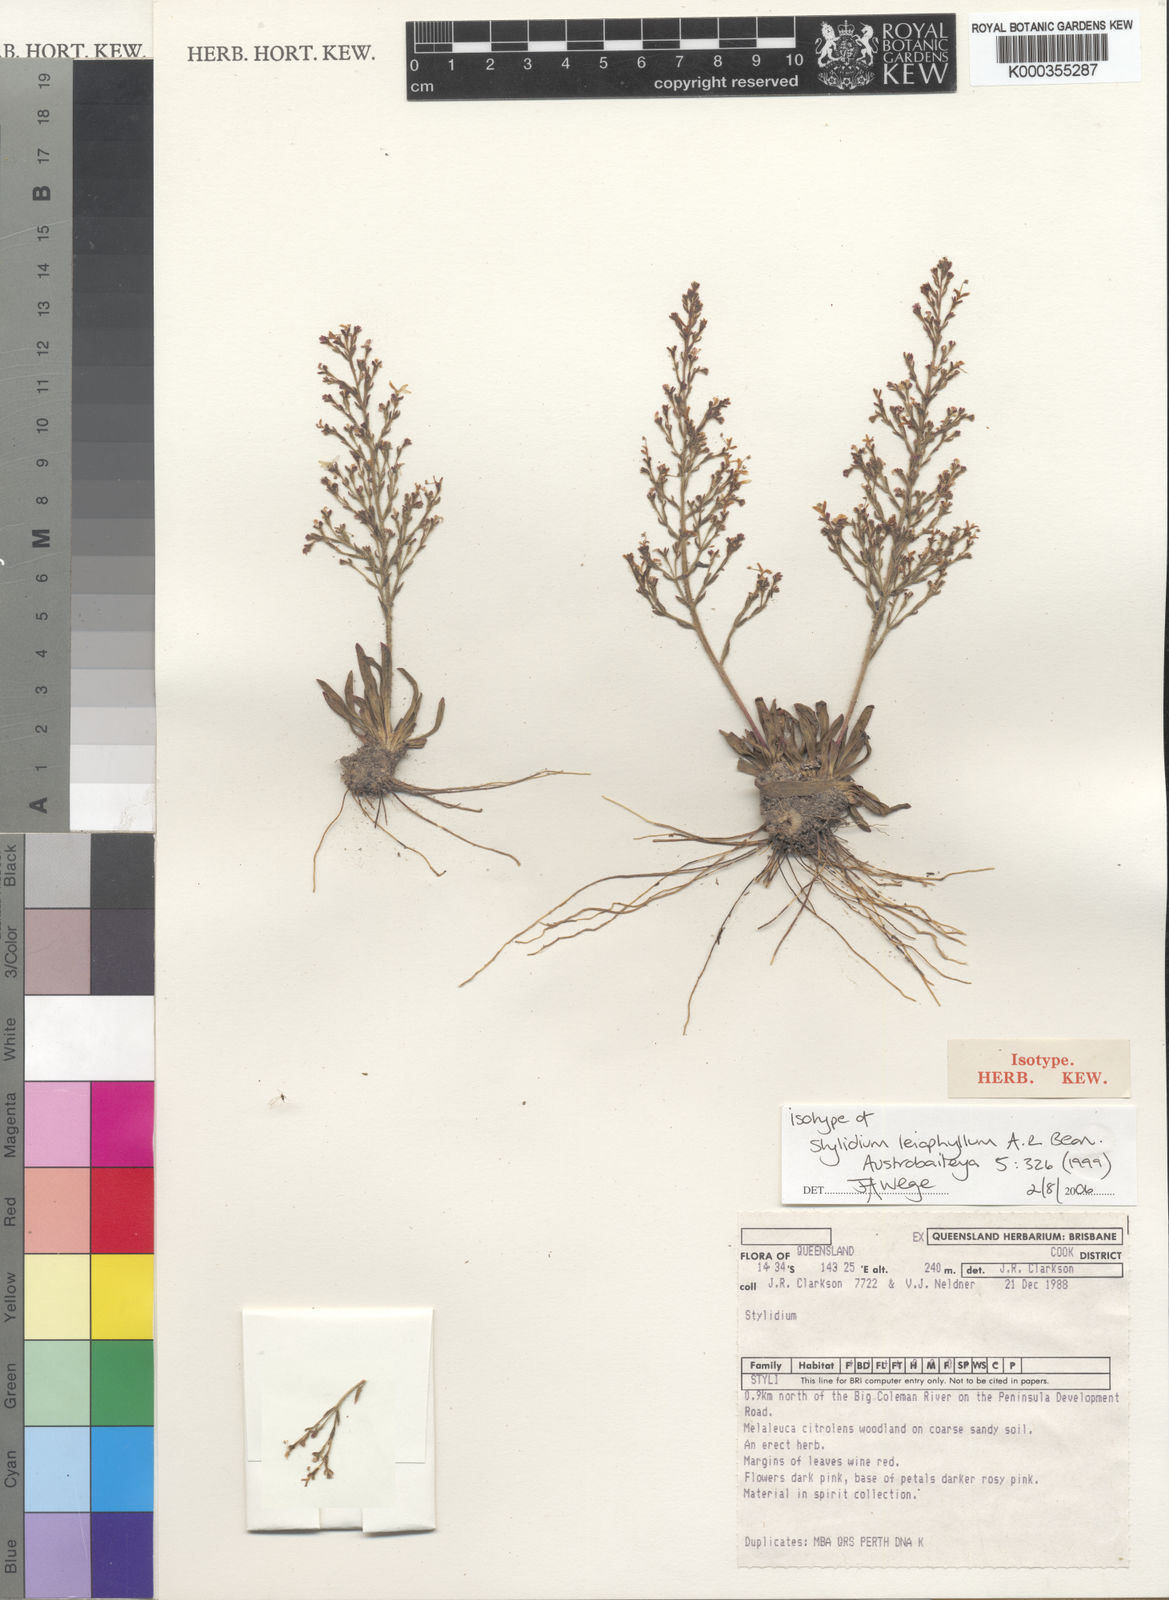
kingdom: Plantae
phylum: Tracheophyta
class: Magnoliopsida
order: Asterales
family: Stylidiaceae
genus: Stylidium
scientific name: Stylidium leiophyllum
